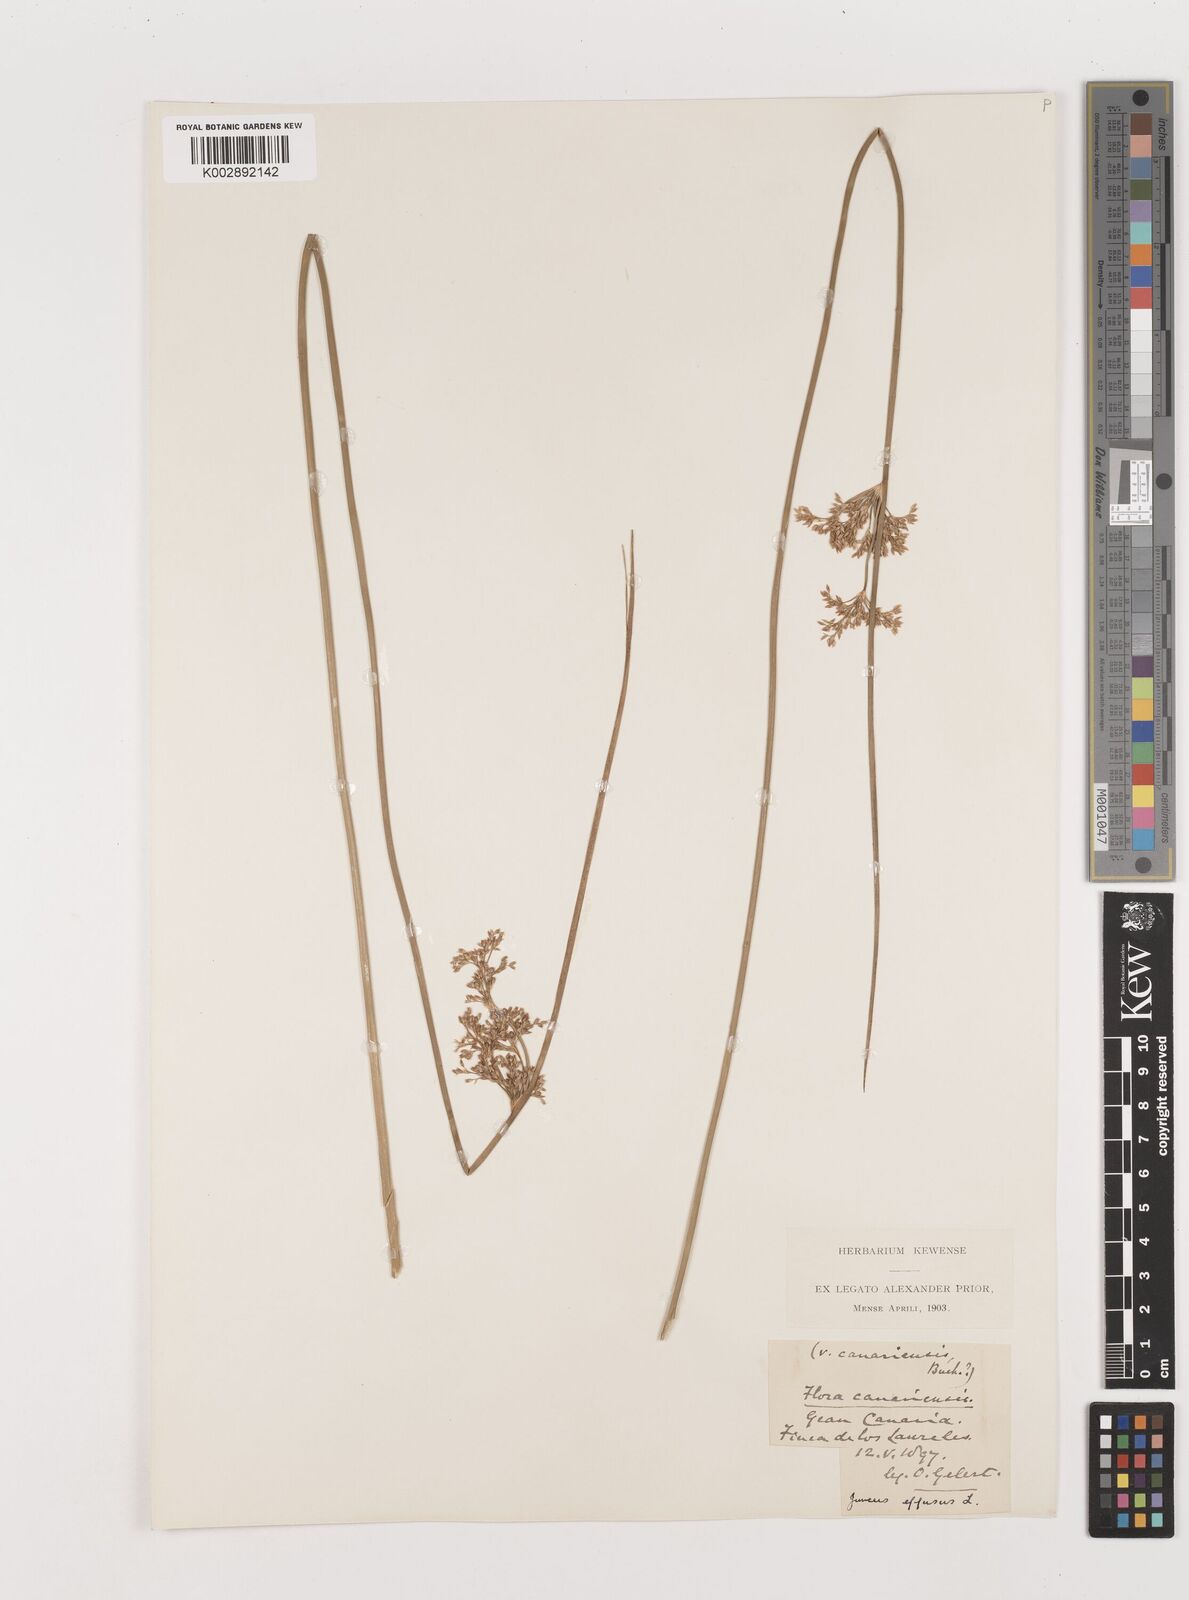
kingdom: Plantae
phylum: Tracheophyta
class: Liliopsida
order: Poales
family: Juncaceae
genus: Juncus
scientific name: Juncus effusus
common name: Soft rush
